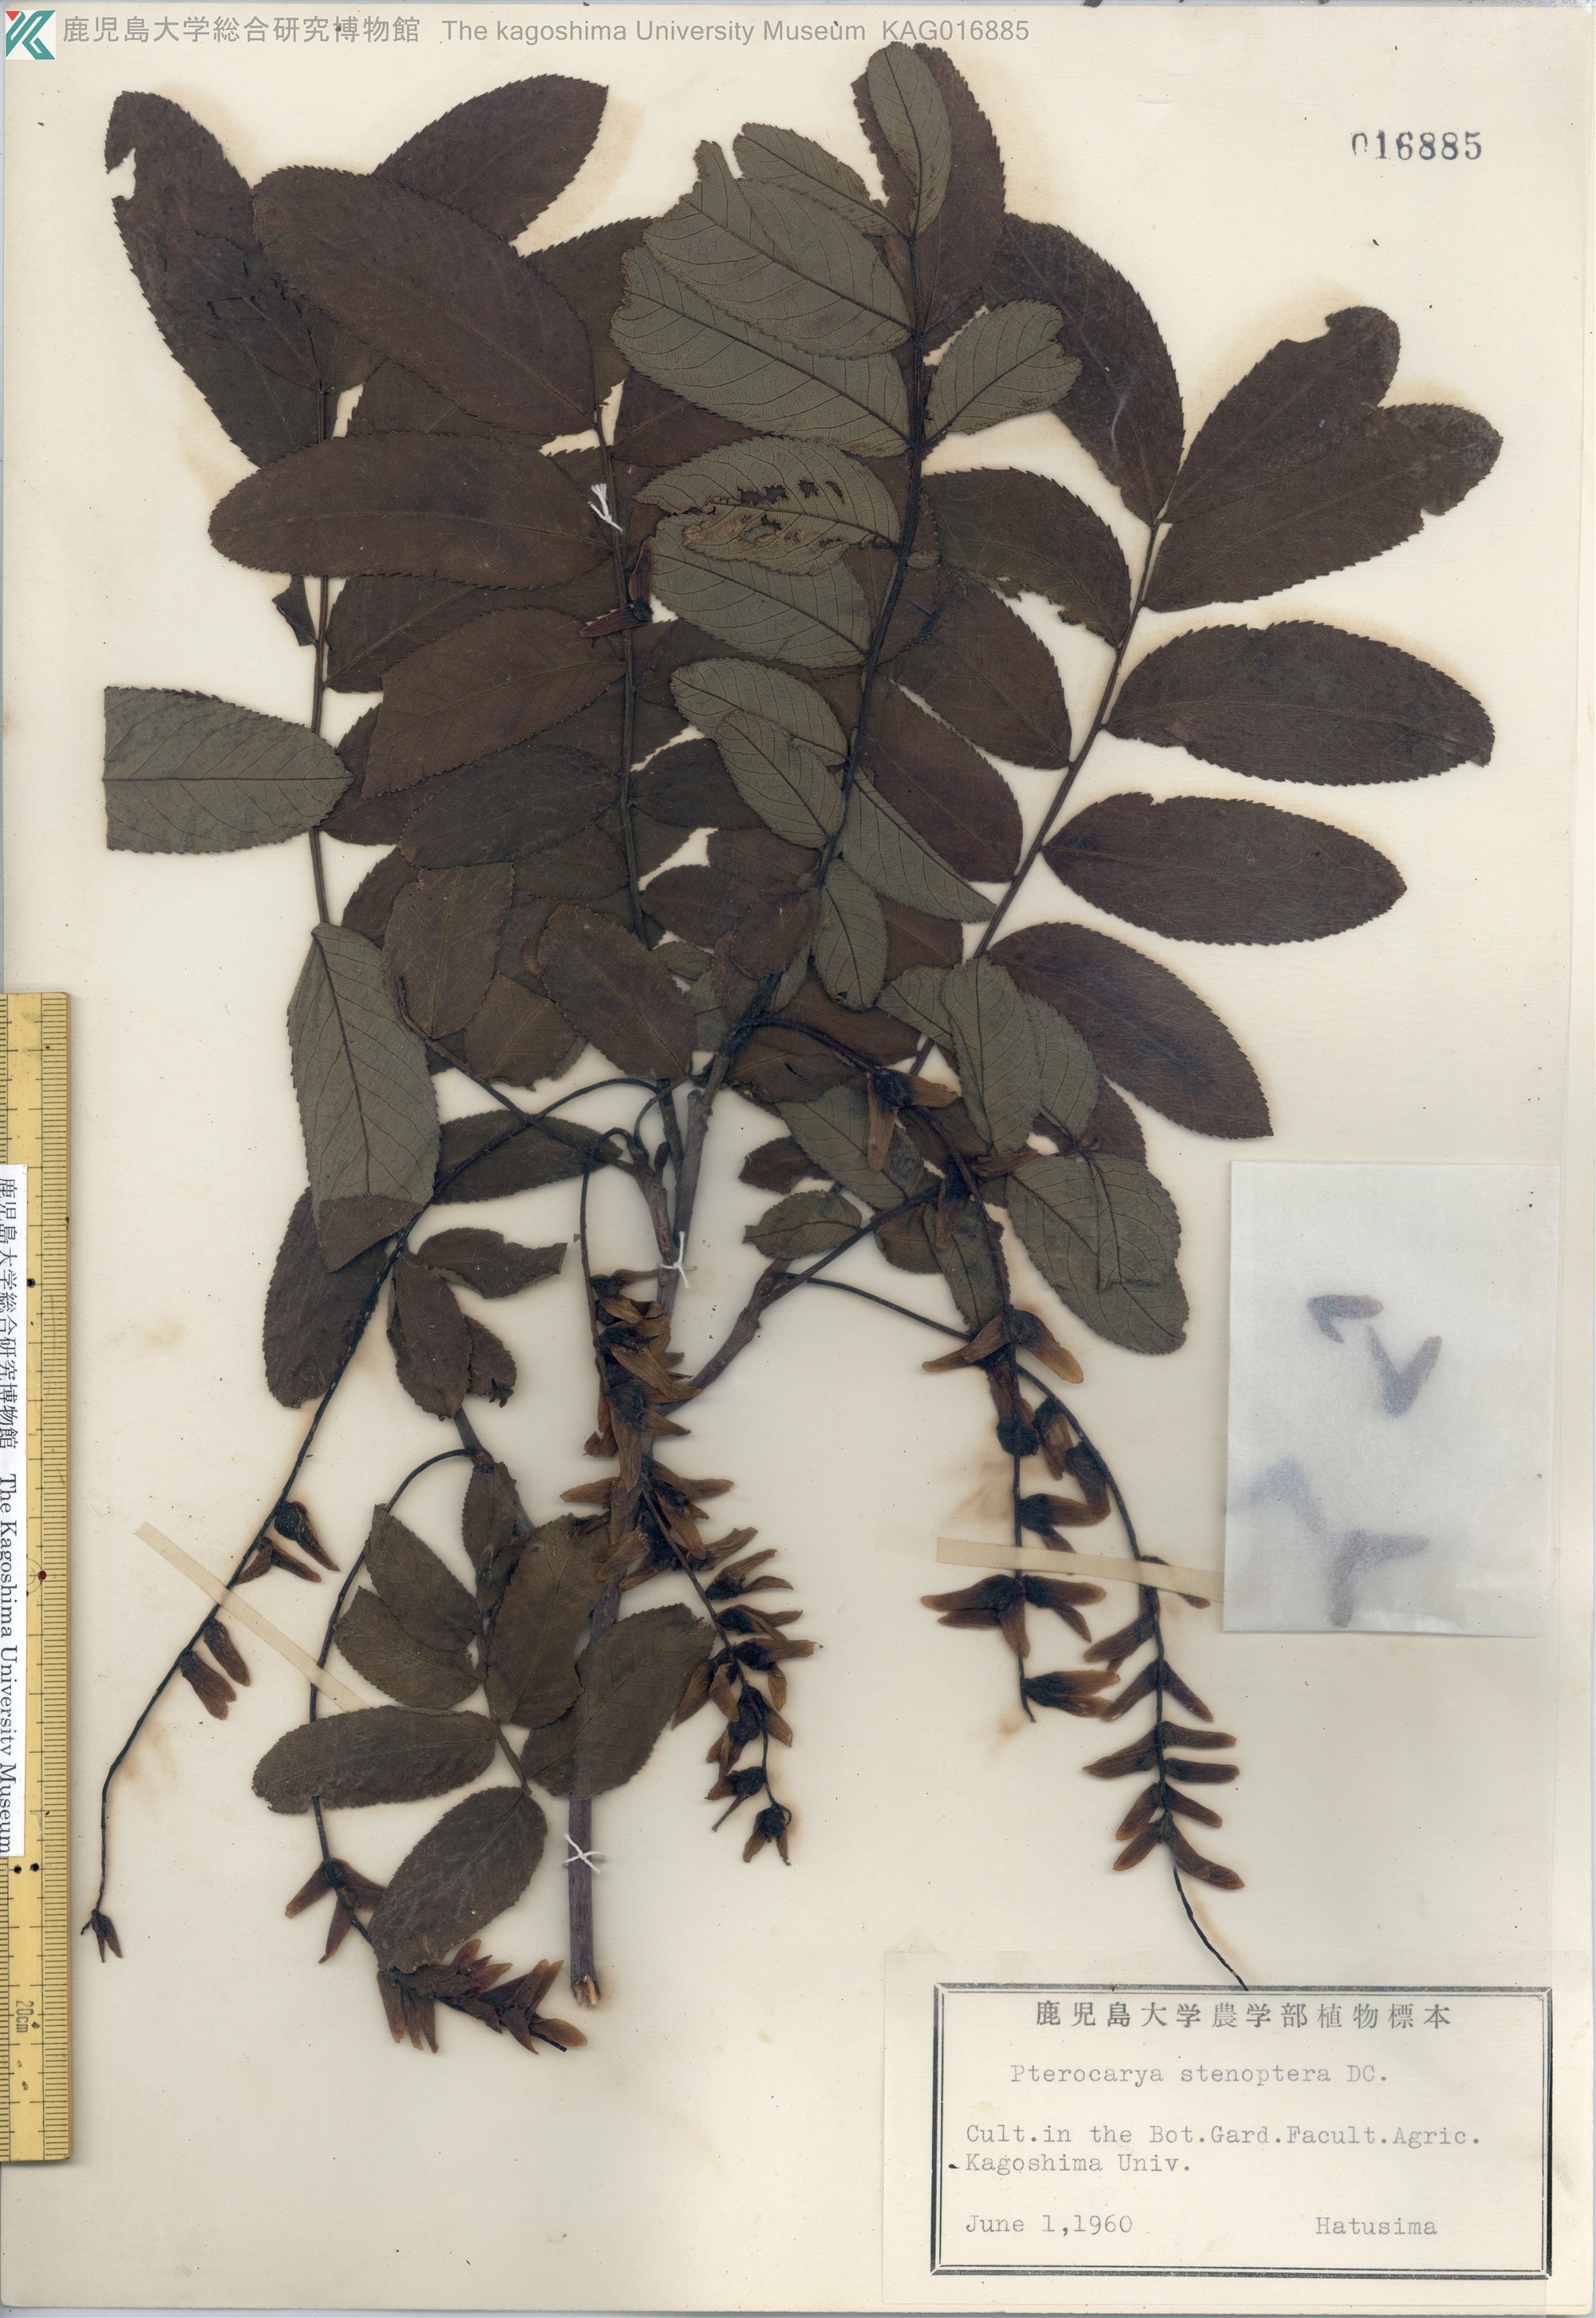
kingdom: Plantae
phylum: Tracheophyta
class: Magnoliopsida
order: Fagales
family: Juglandaceae
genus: Pterocarya
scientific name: Pterocarya stenoptera
